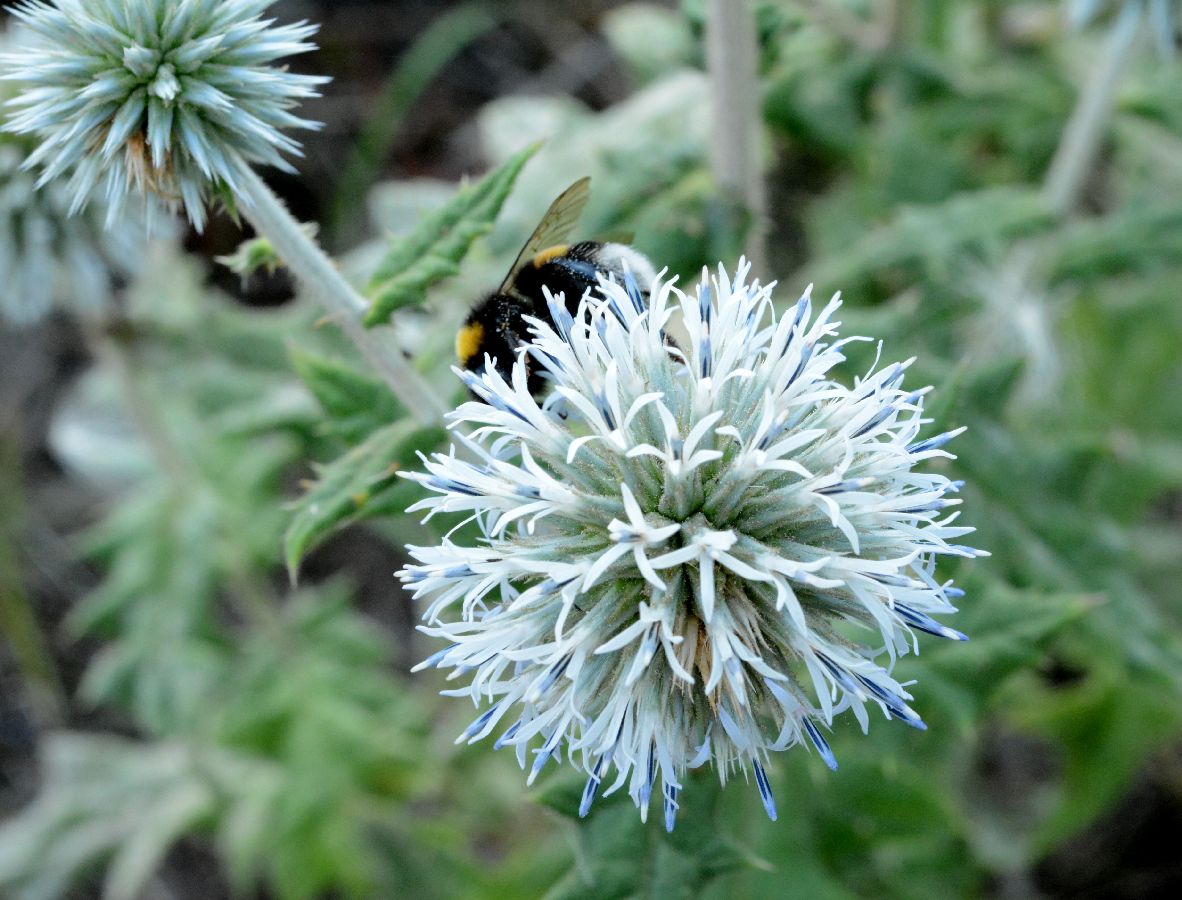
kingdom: Plantae
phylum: Tracheophyta
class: Magnoliopsida
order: Asterales
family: Asteraceae
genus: Echinops
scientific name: Echinops sphaerocephalus
